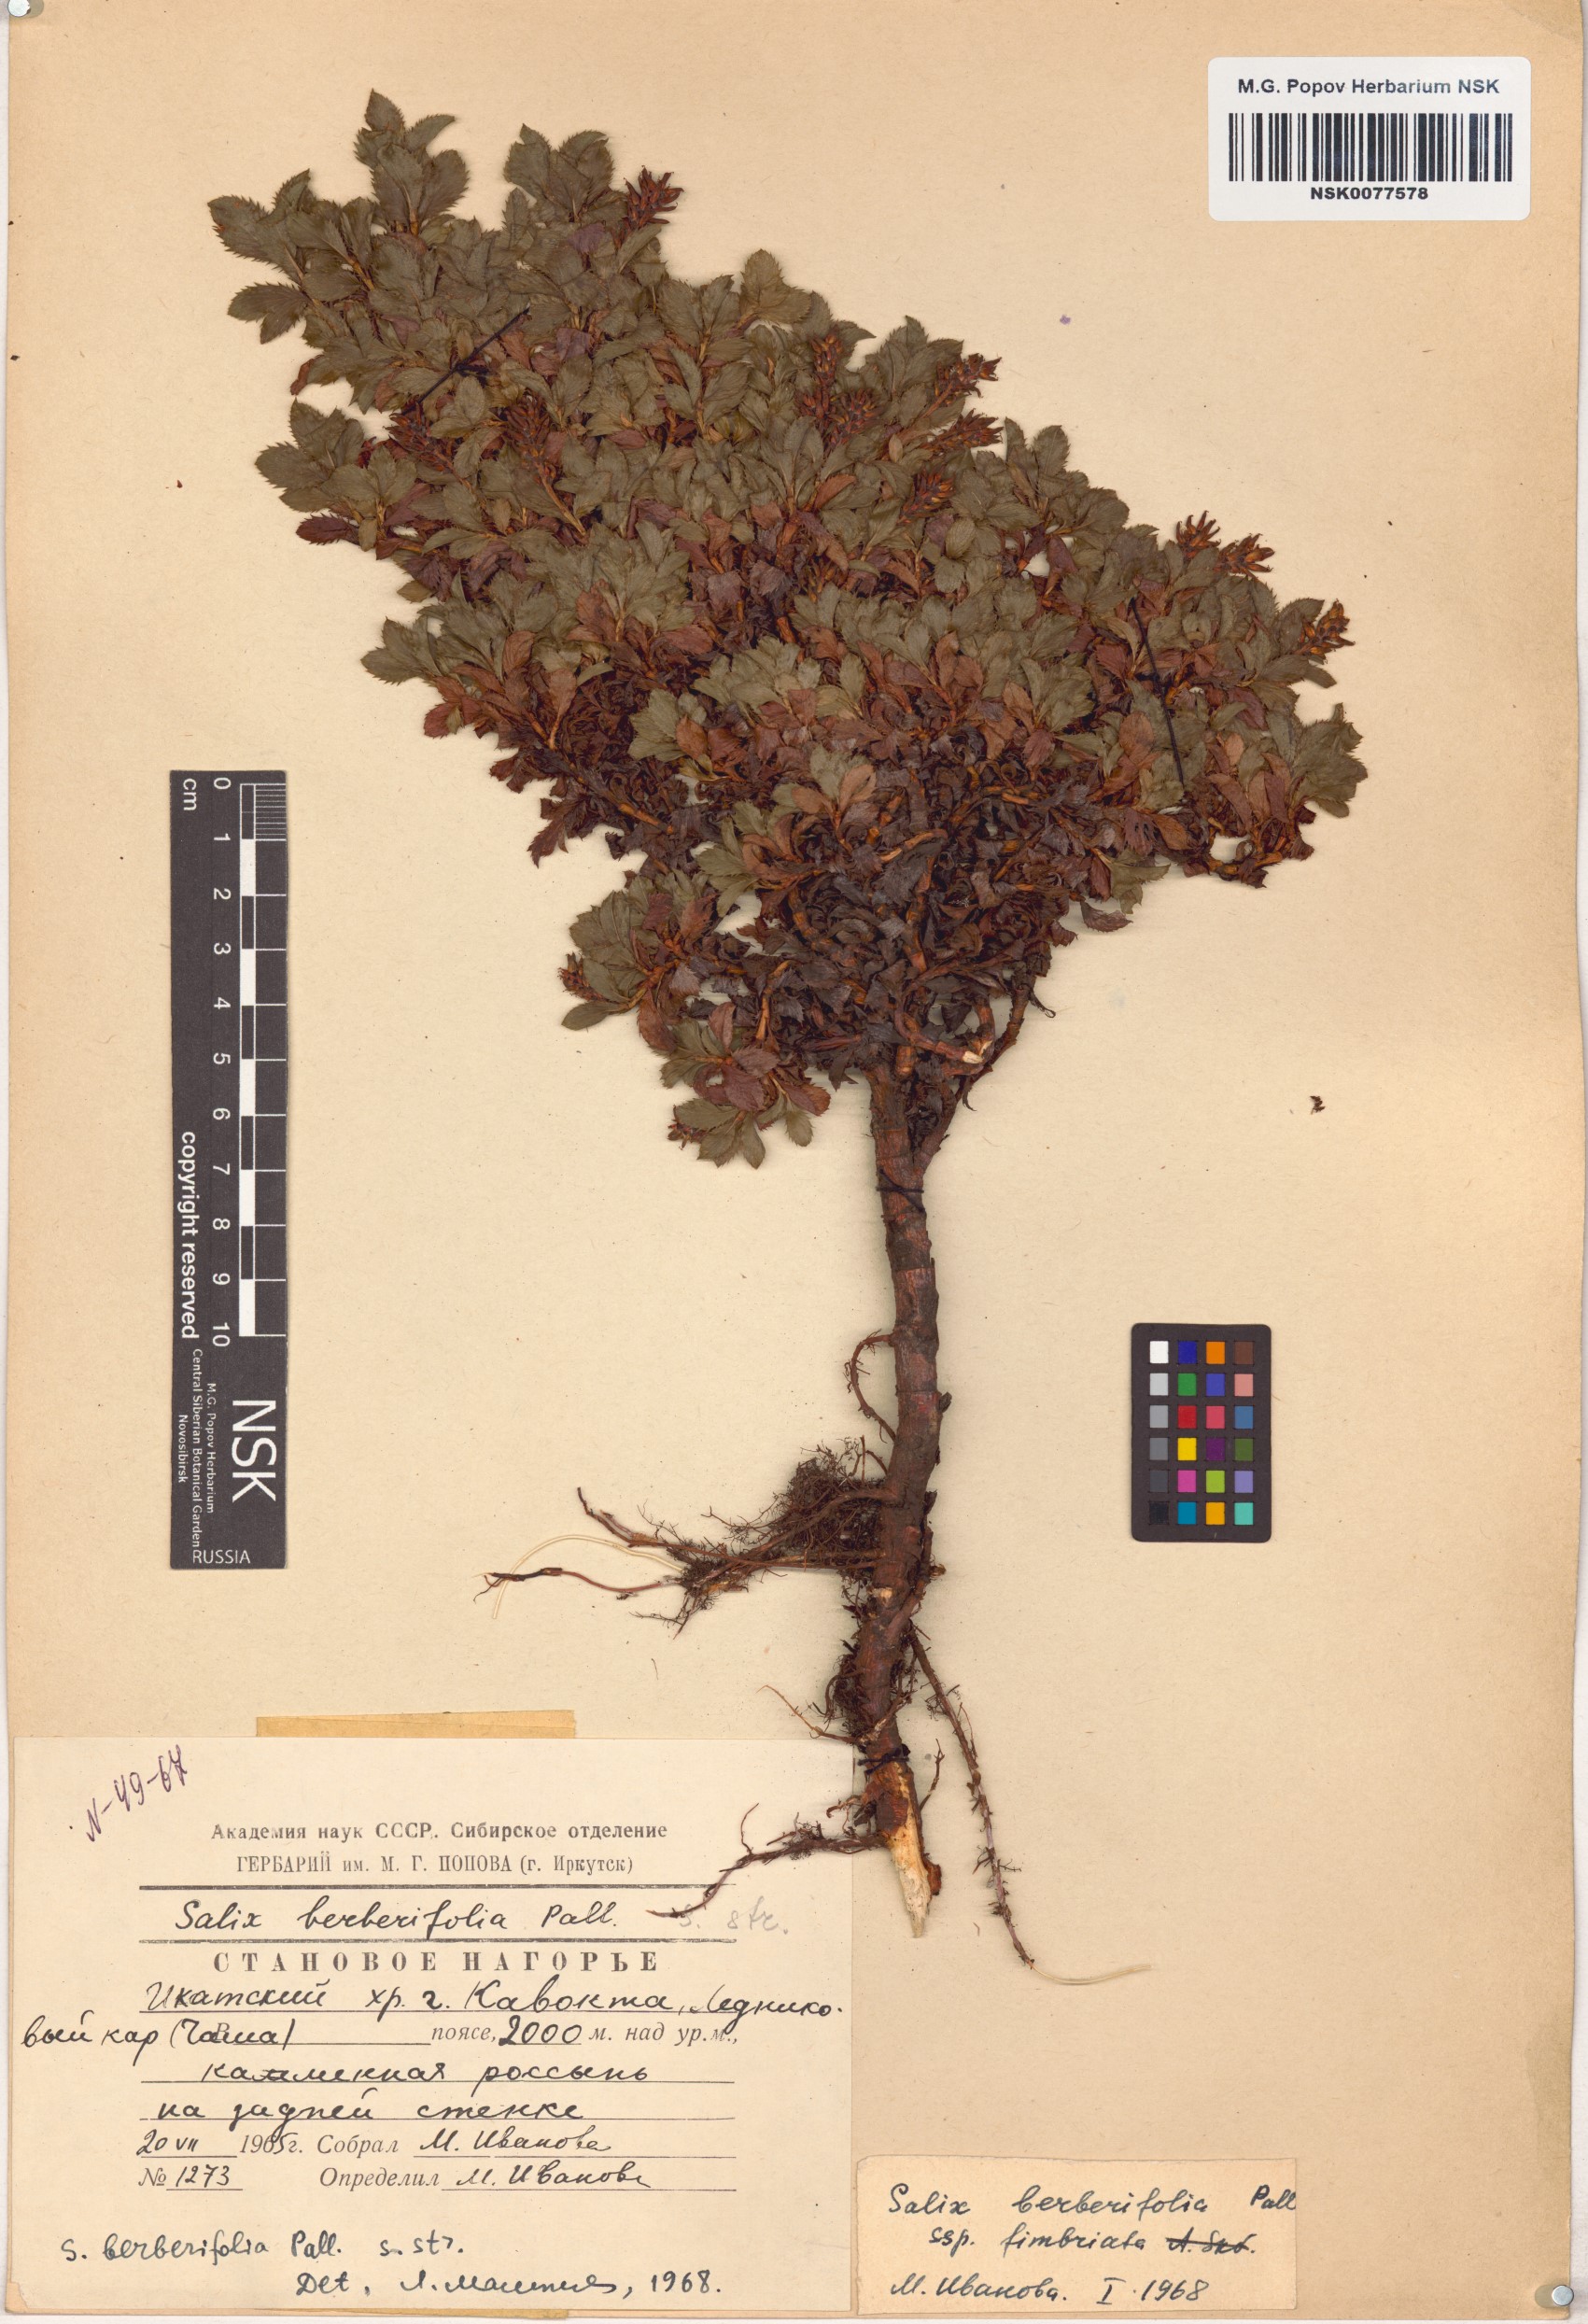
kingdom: Plantae
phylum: Tracheophyta
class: Magnoliopsida
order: Malpighiales
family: Salicaceae
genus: Salix
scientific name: Salix berberifolia
